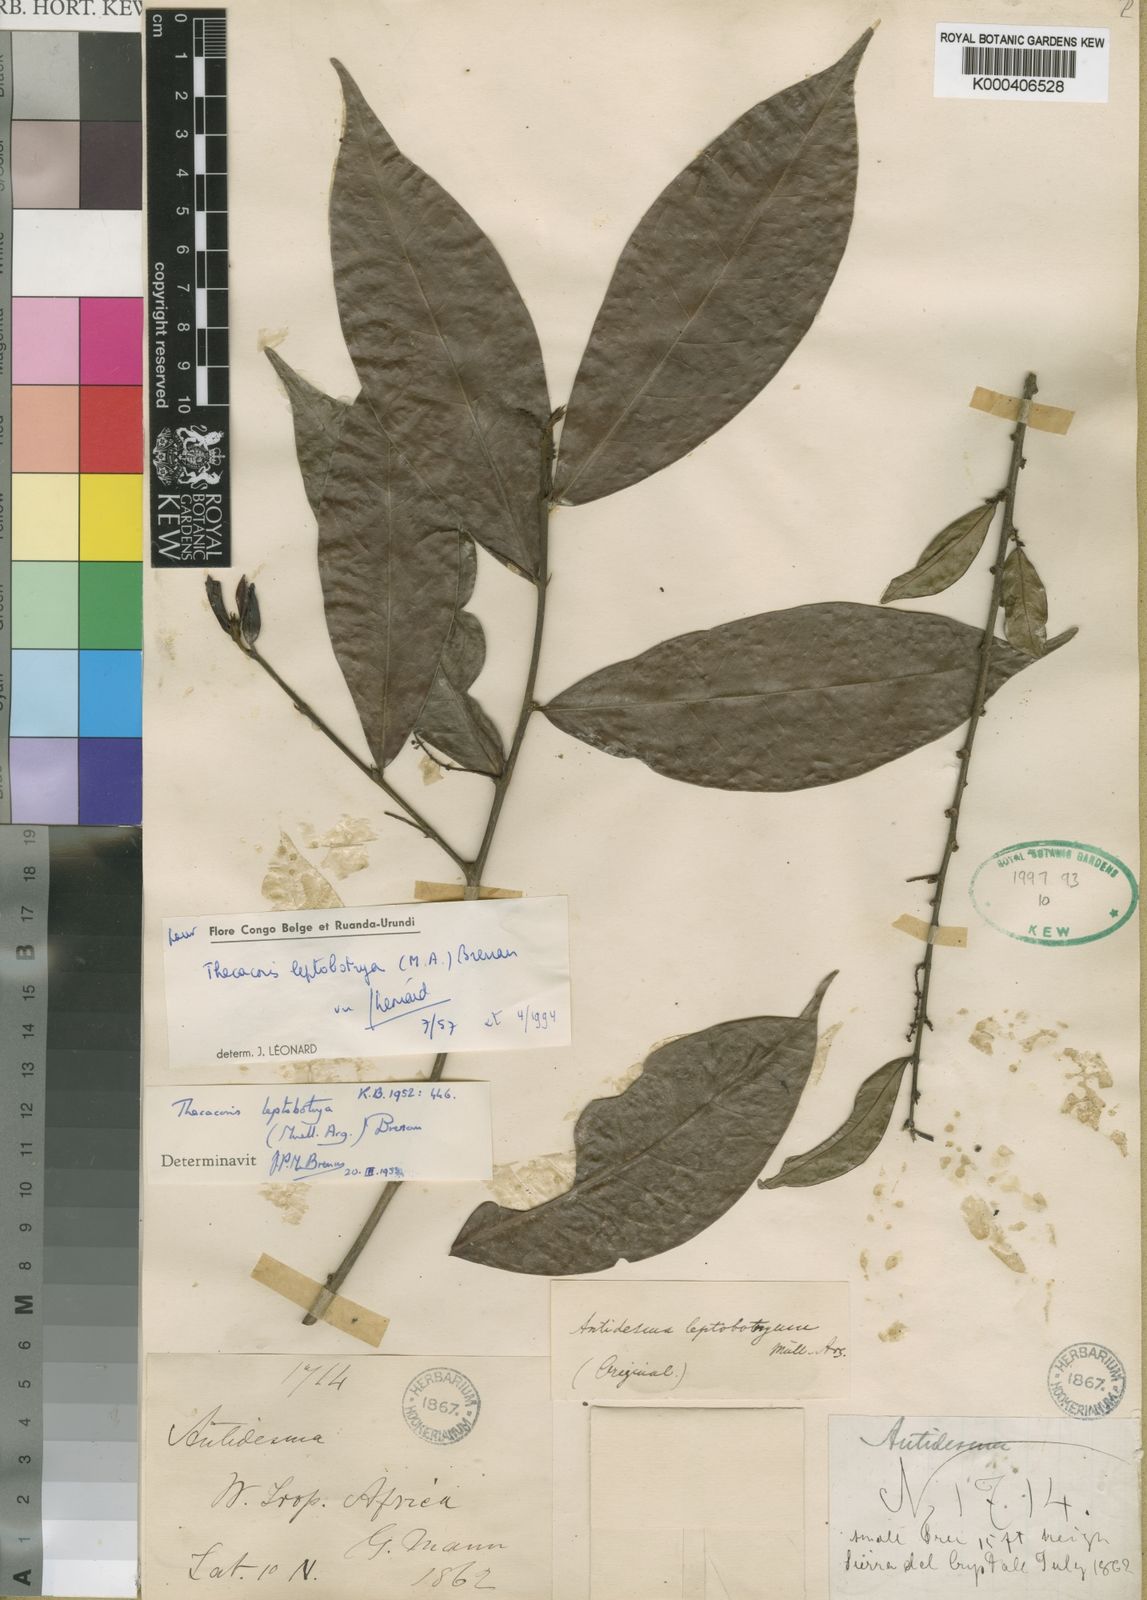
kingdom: Plantae
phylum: Tracheophyta
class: Magnoliopsida
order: Malpighiales
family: Phyllanthaceae
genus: Thecacoris
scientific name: Thecacoris
